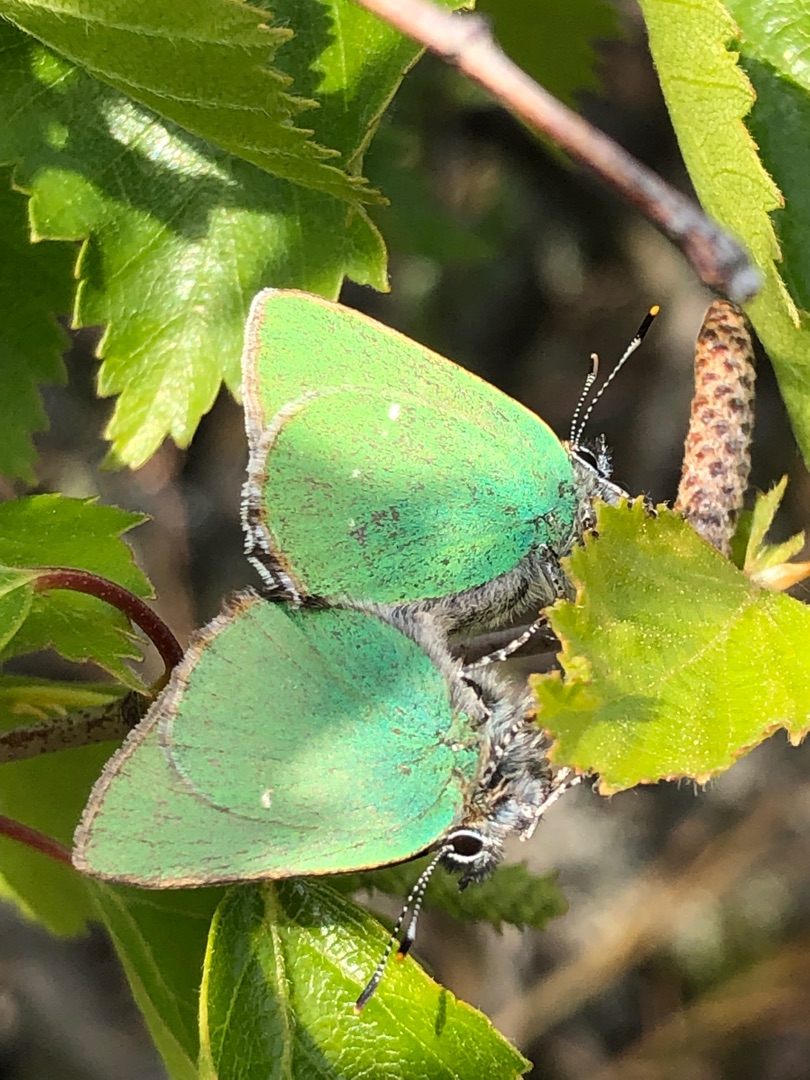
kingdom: Animalia
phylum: Arthropoda
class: Insecta
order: Lepidoptera
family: Lycaenidae
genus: Callophrys
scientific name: Callophrys rubi
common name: Grøn busksommerfugl
